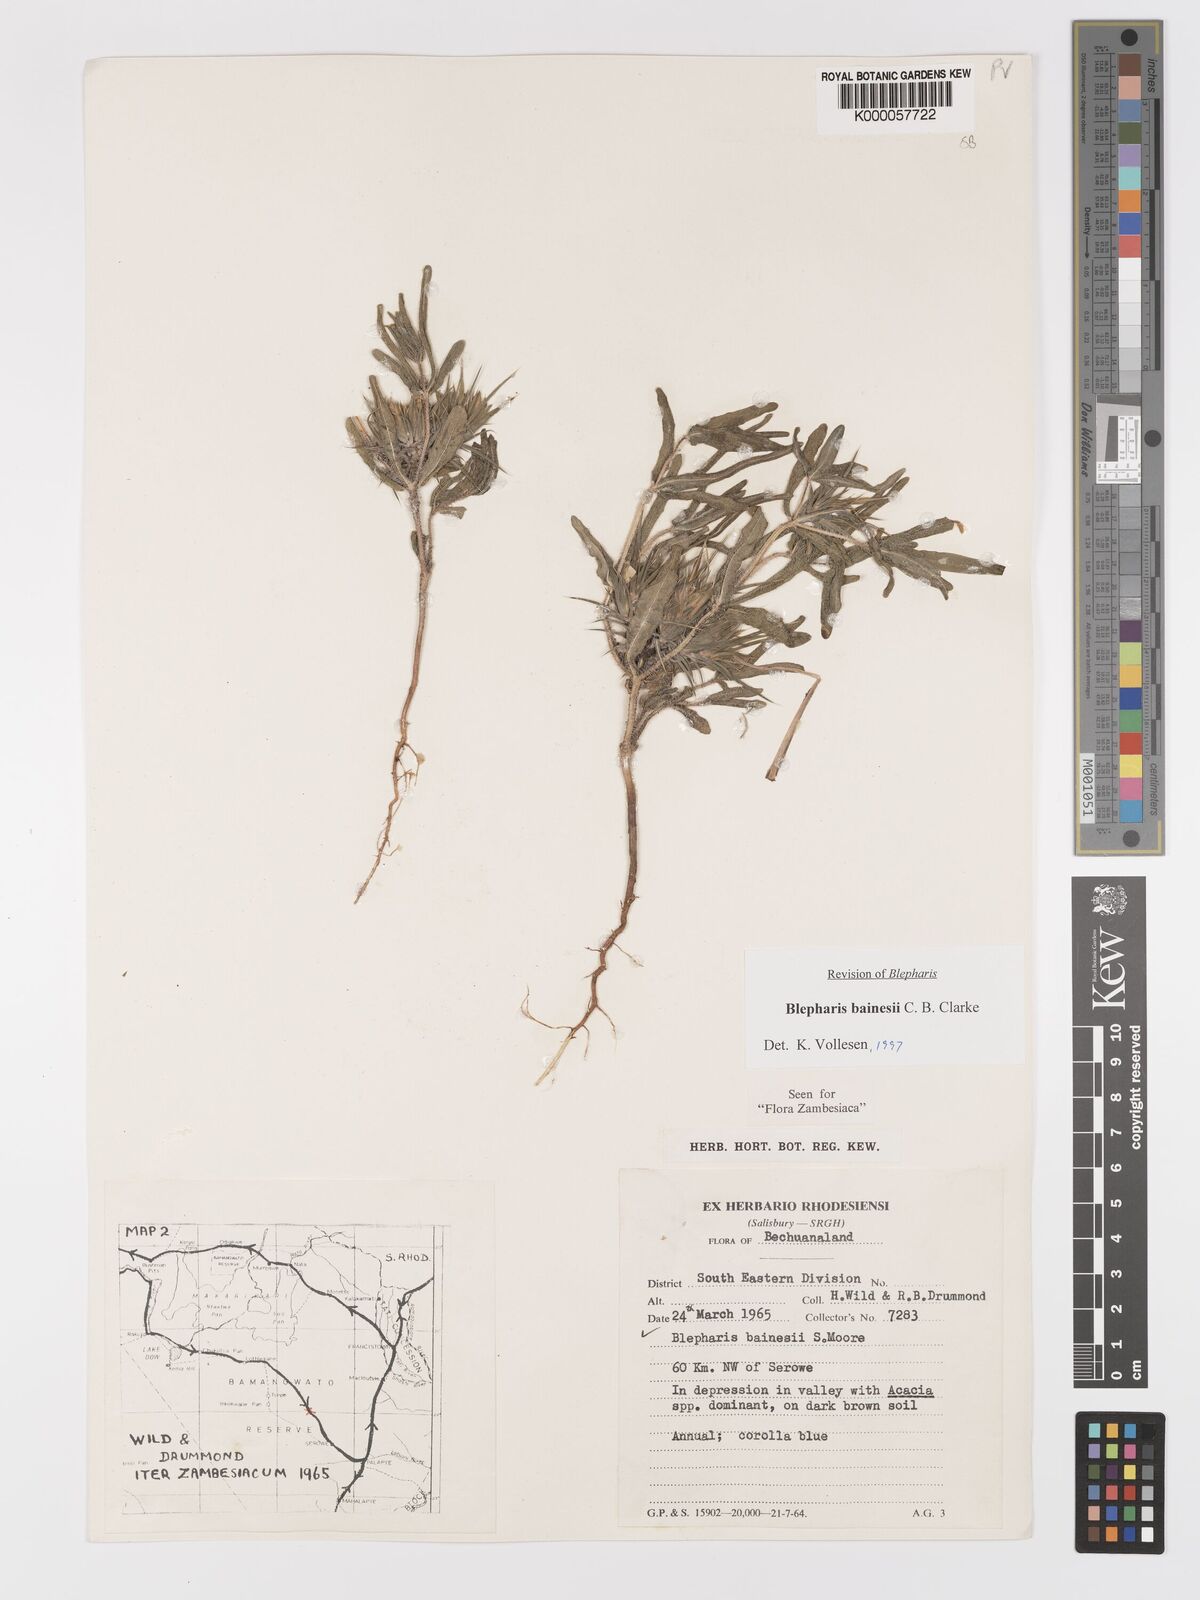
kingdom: Plantae
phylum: Tracheophyta
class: Magnoliopsida
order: Lamiales
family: Acanthaceae
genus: Blepharis
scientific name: Blepharis bainesii
